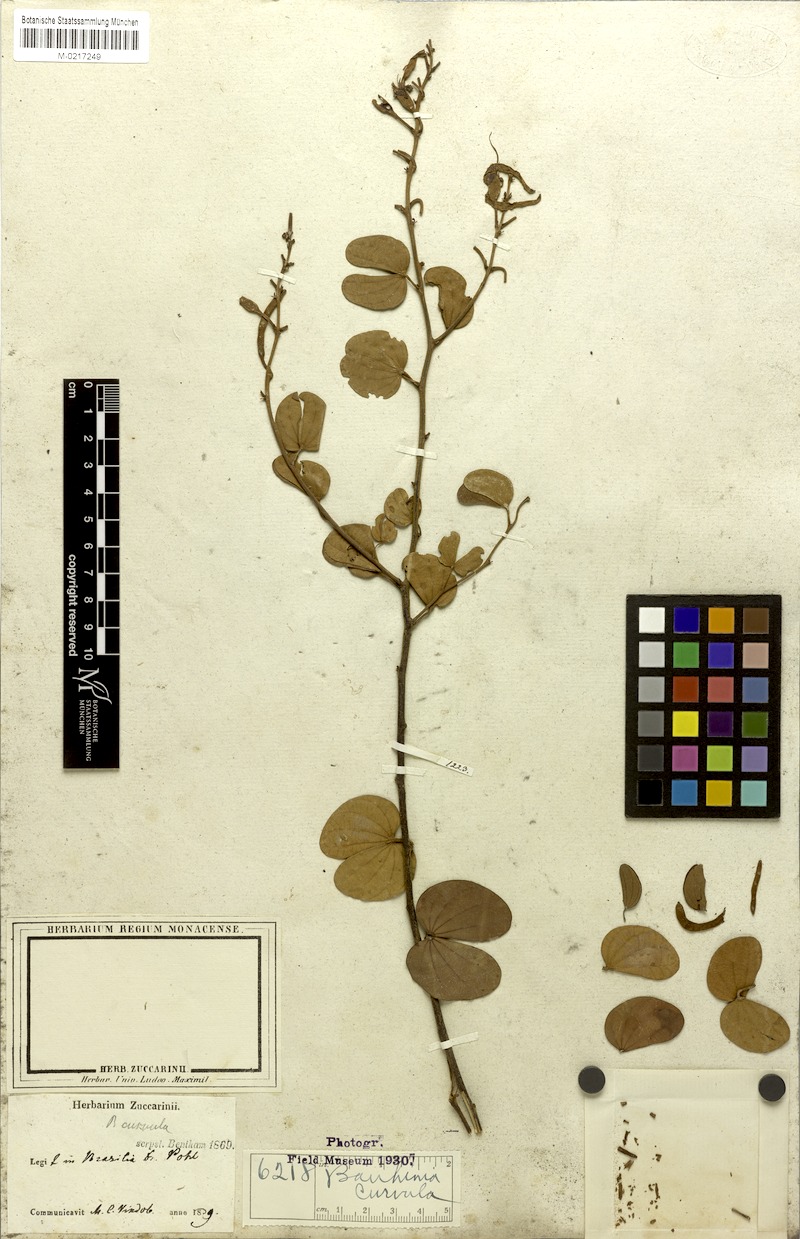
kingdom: Plantae
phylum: Tracheophyta
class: Magnoliopsida
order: Fabales
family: Fabaceae
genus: Bauhinia
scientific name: Bauhinia curvula
